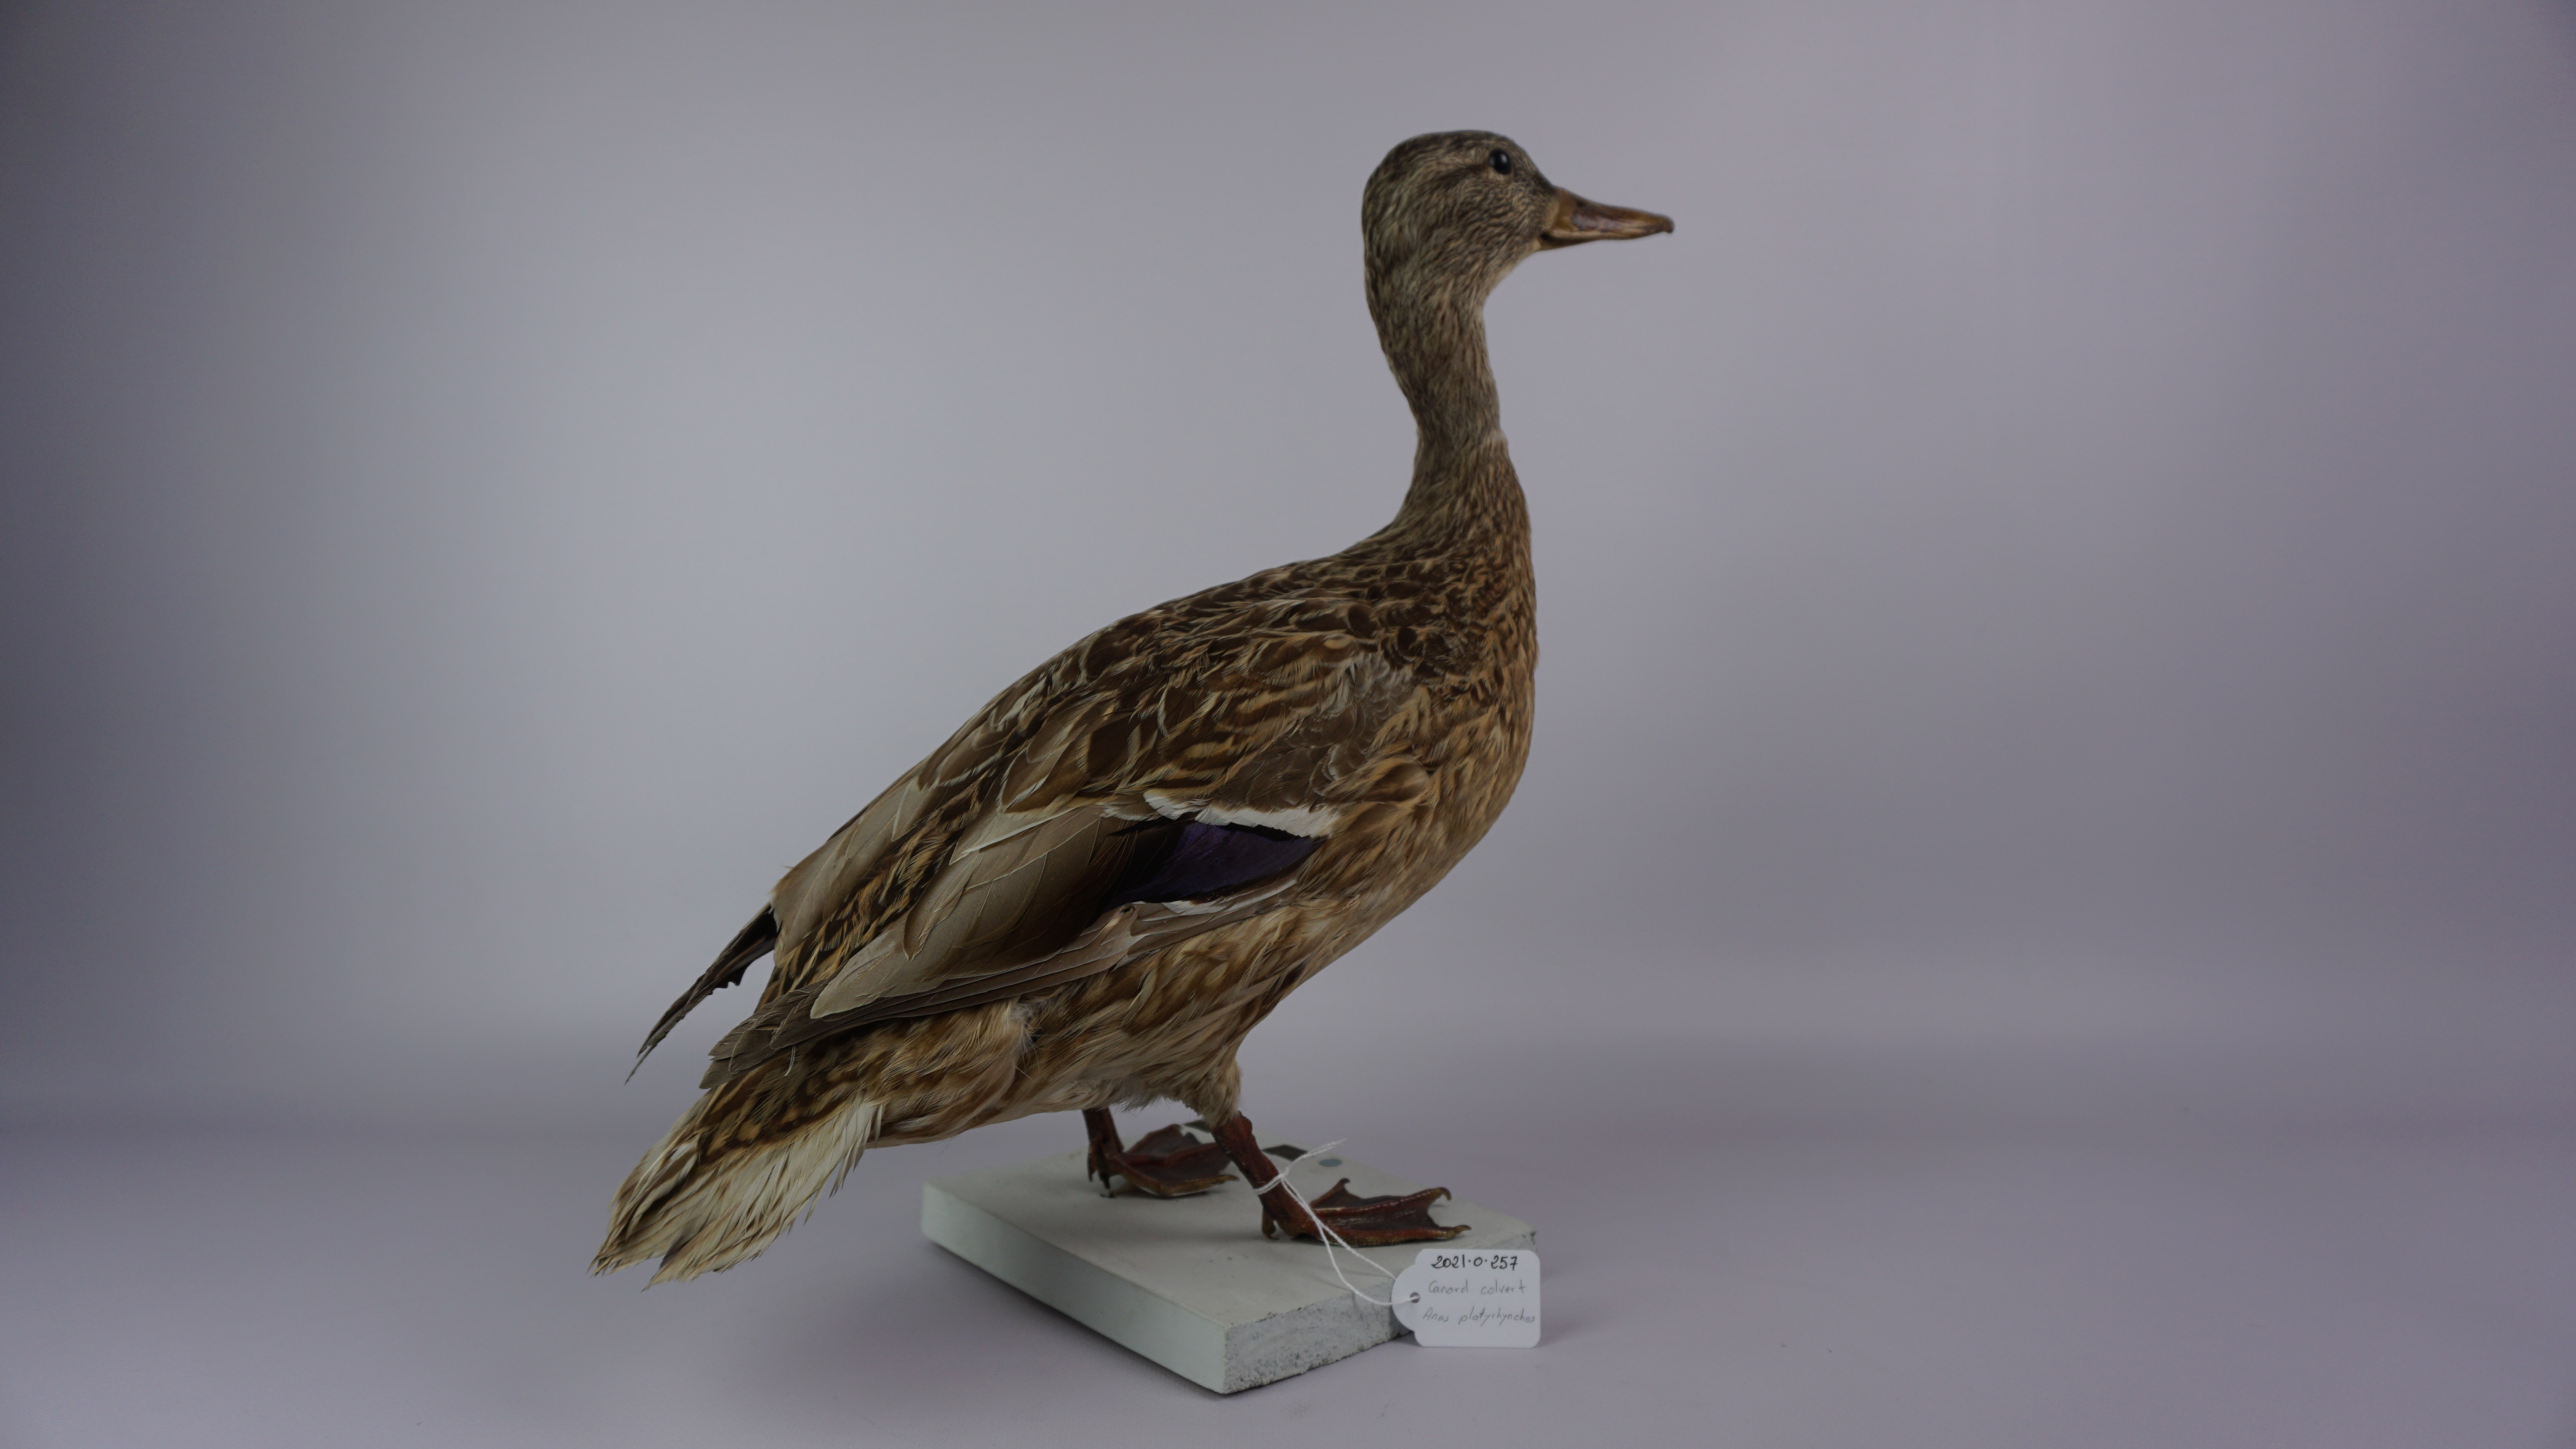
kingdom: Animalia
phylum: Chordata
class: Aves
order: Anseriformes
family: Anatidae
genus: Anas
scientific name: Anas platyrhynchos
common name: Mallard
